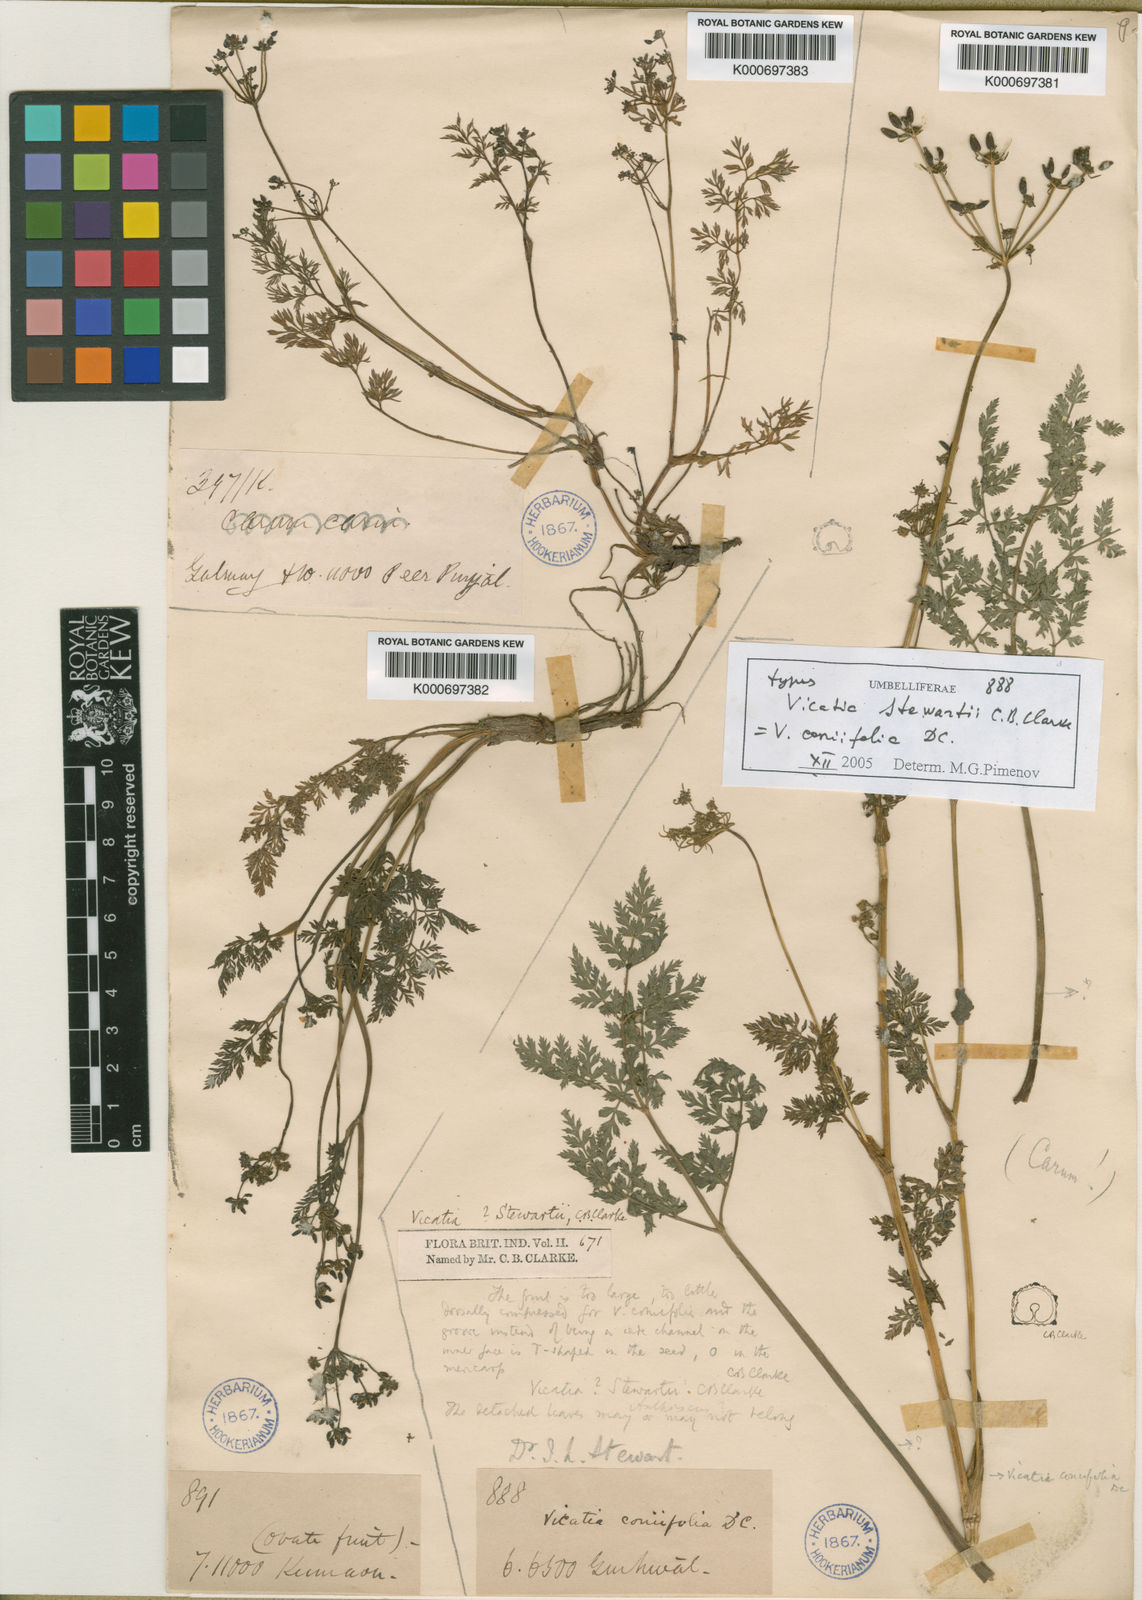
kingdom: Plantae
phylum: Tracheophyta
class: Magnoliopsida
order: Apiales
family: Apiaceae
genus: Vicatia
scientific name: Vicatia coniifolia
